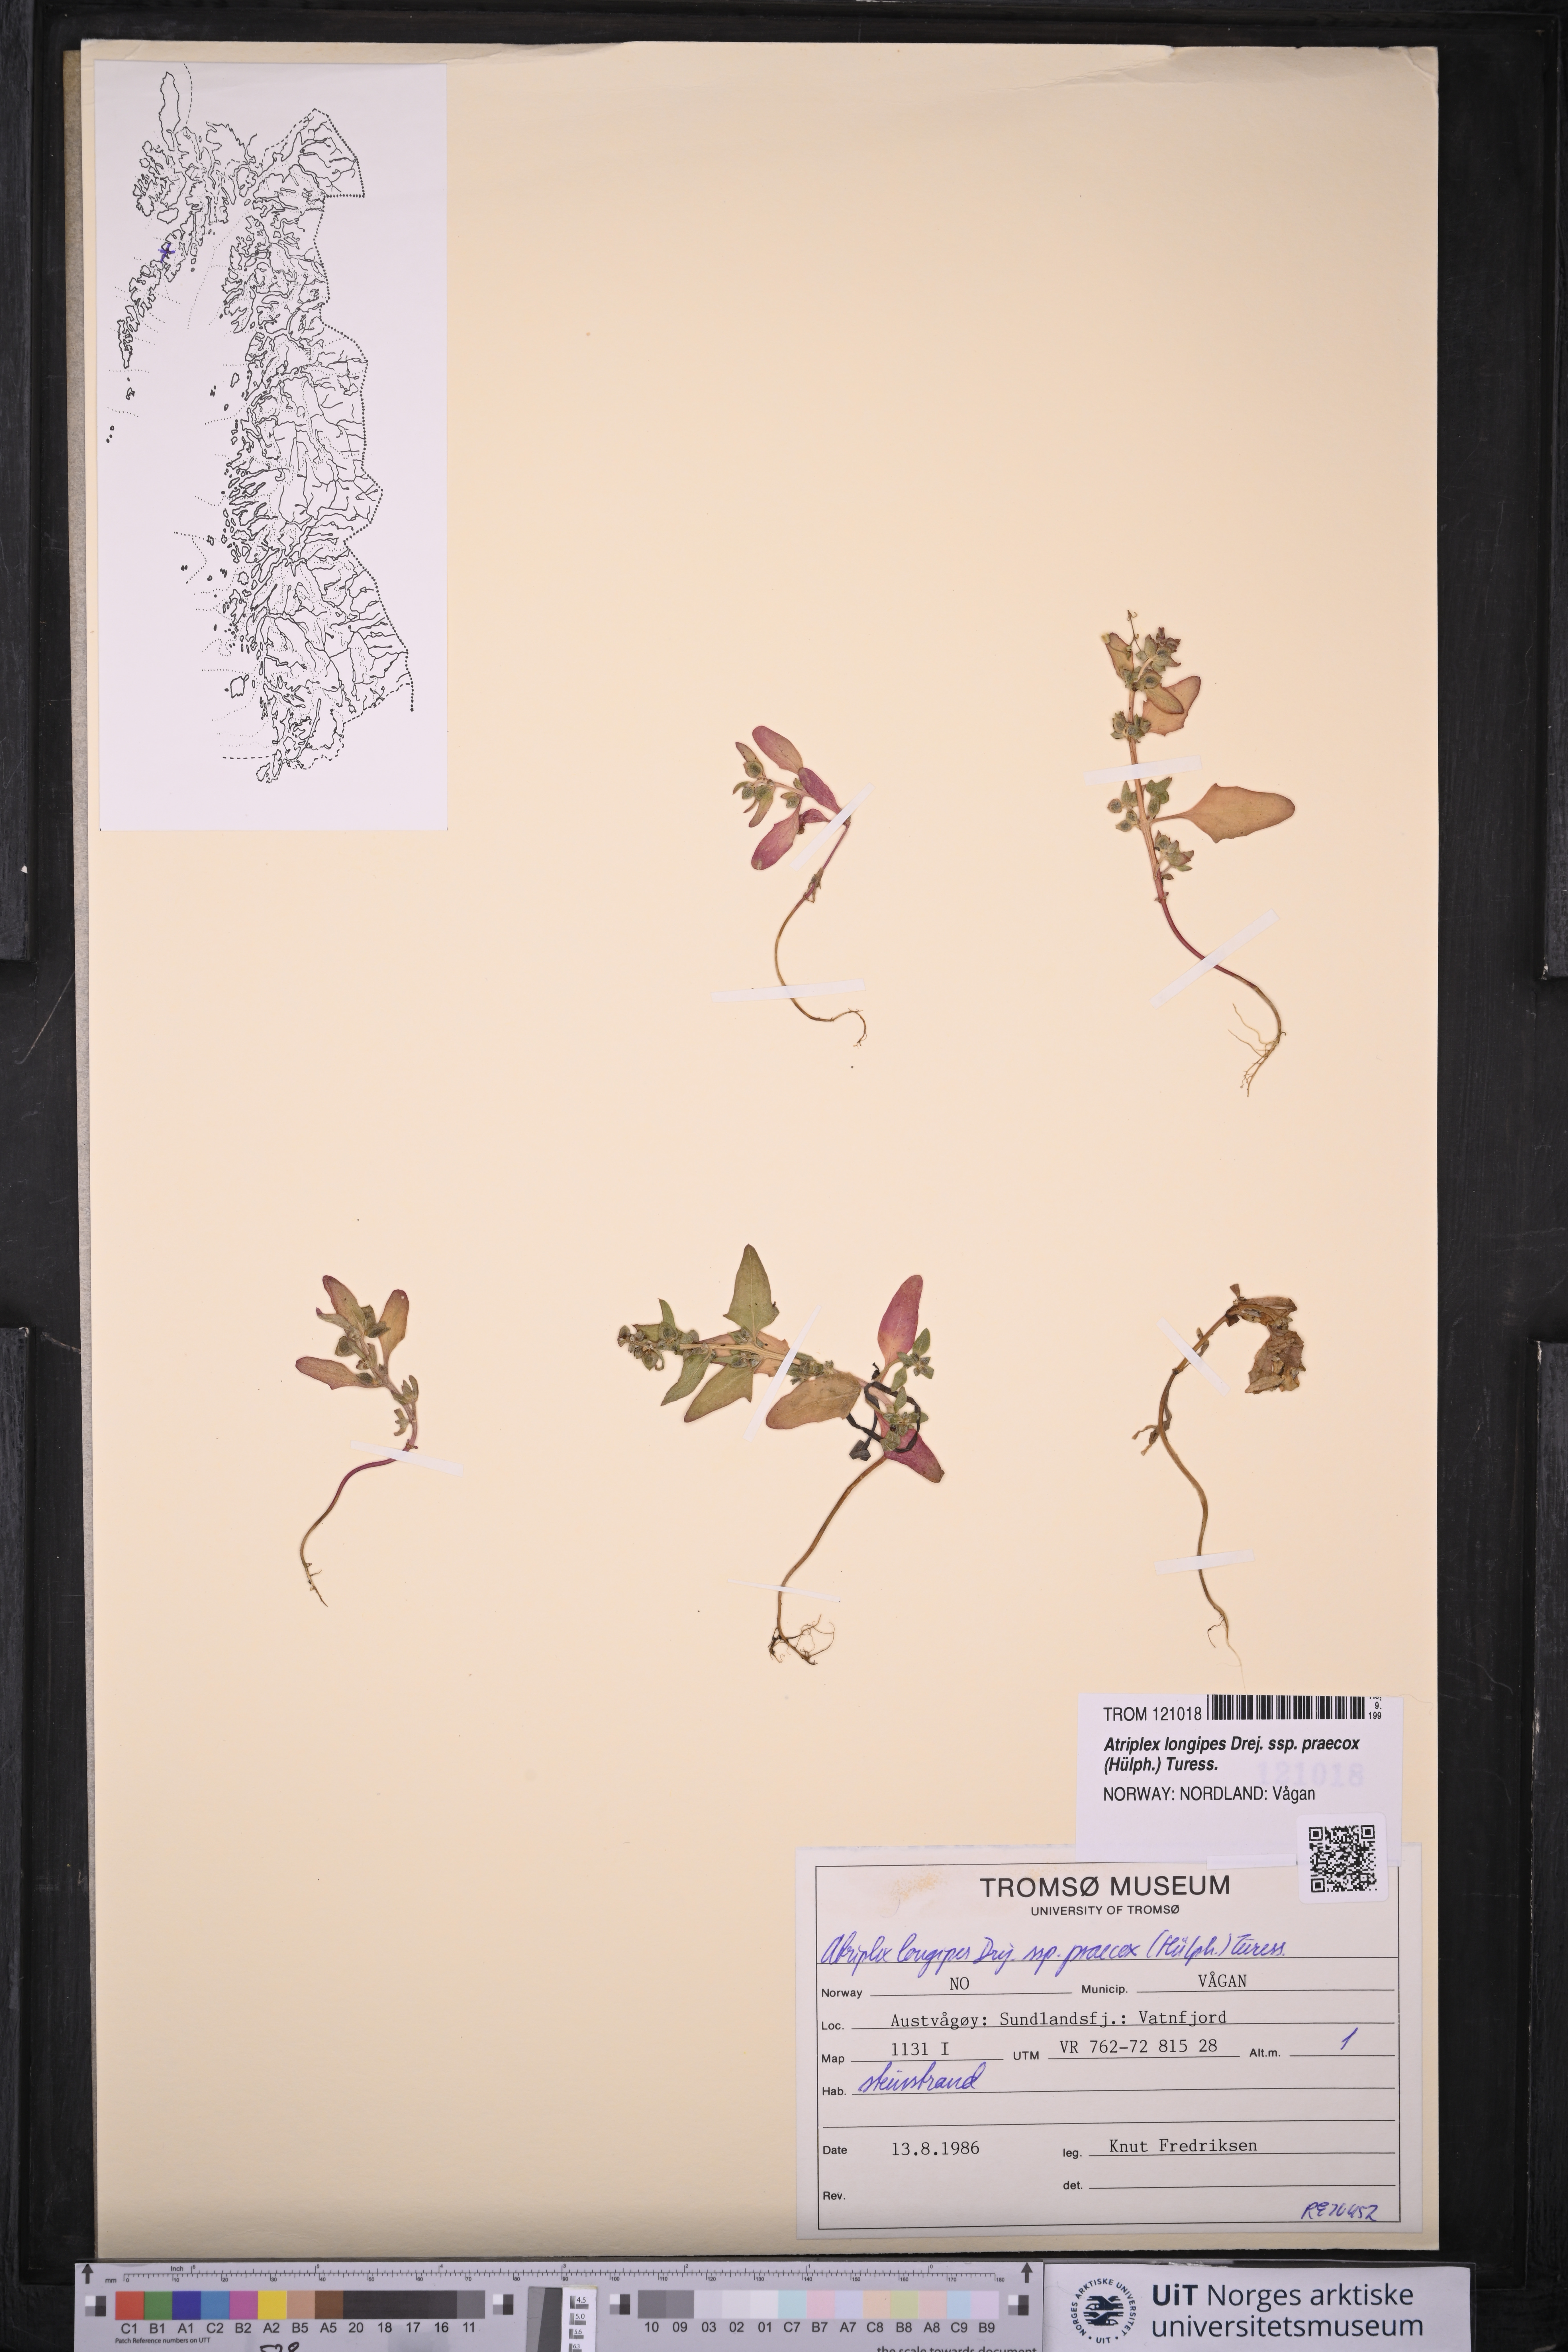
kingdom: Plantae
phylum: Tracheophyta
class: Magnoliopsida
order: Caryophyllales
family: Amaranthaceae
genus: Atriplex
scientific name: Atriplex praecox
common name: Early orache
